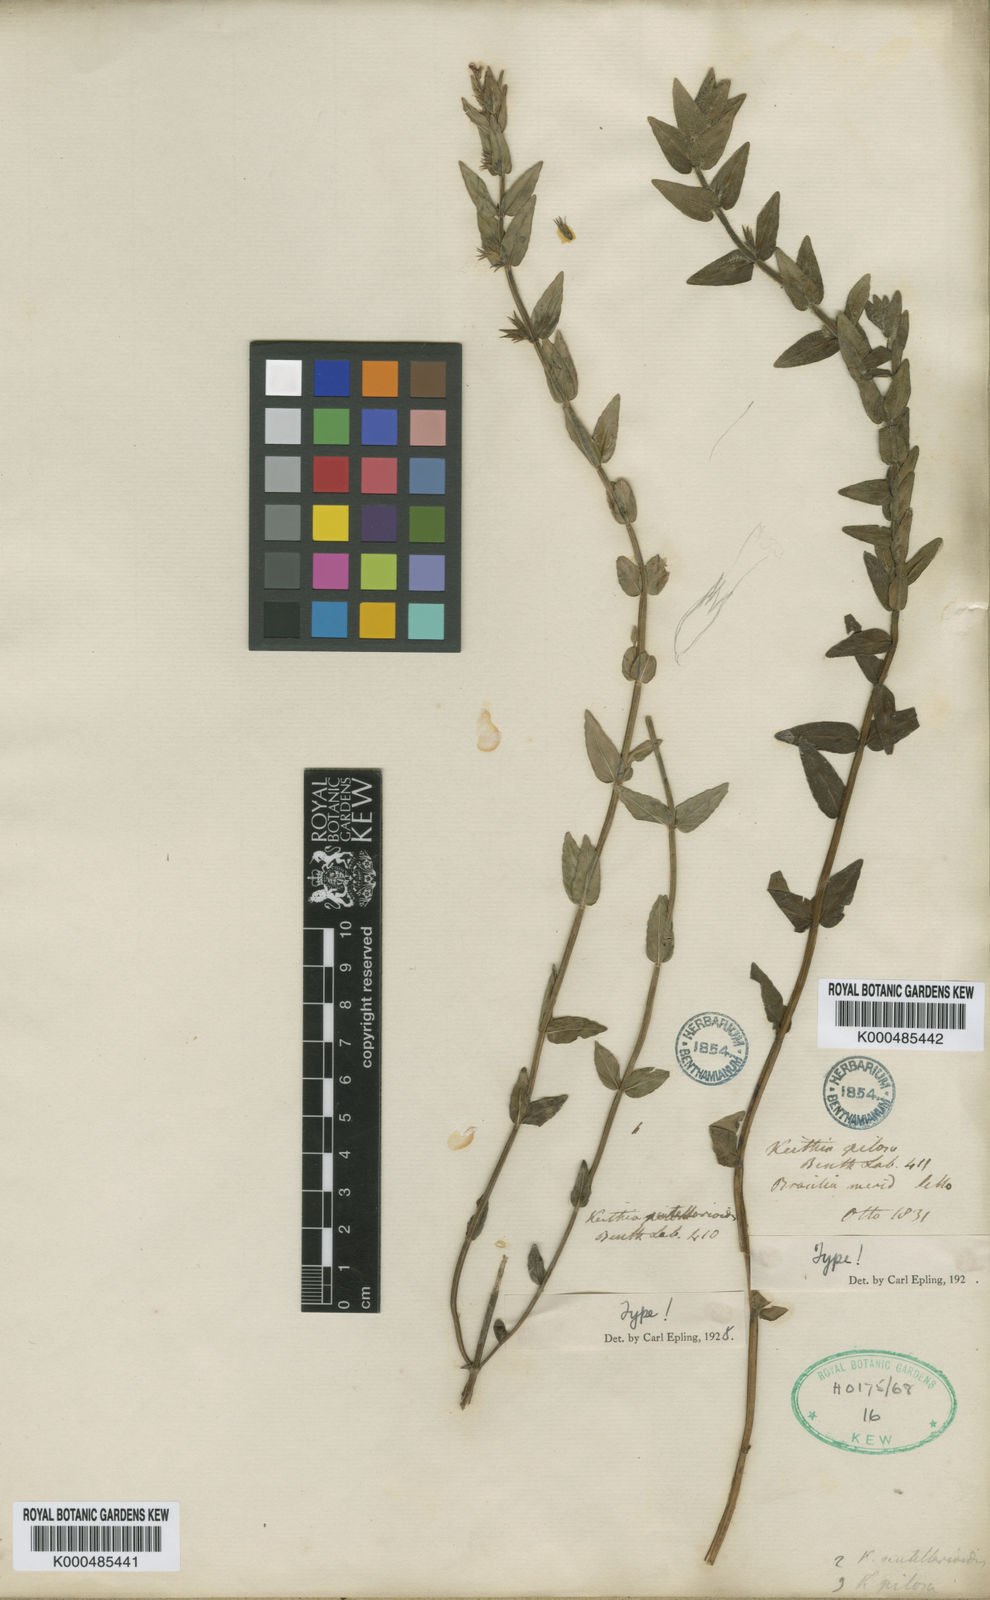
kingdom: Plantae
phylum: Tracheophyta
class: Magnoliopsida
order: Lamiales
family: Lamiaceae
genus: Hoehnea
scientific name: Hoehnea scutellarioides
